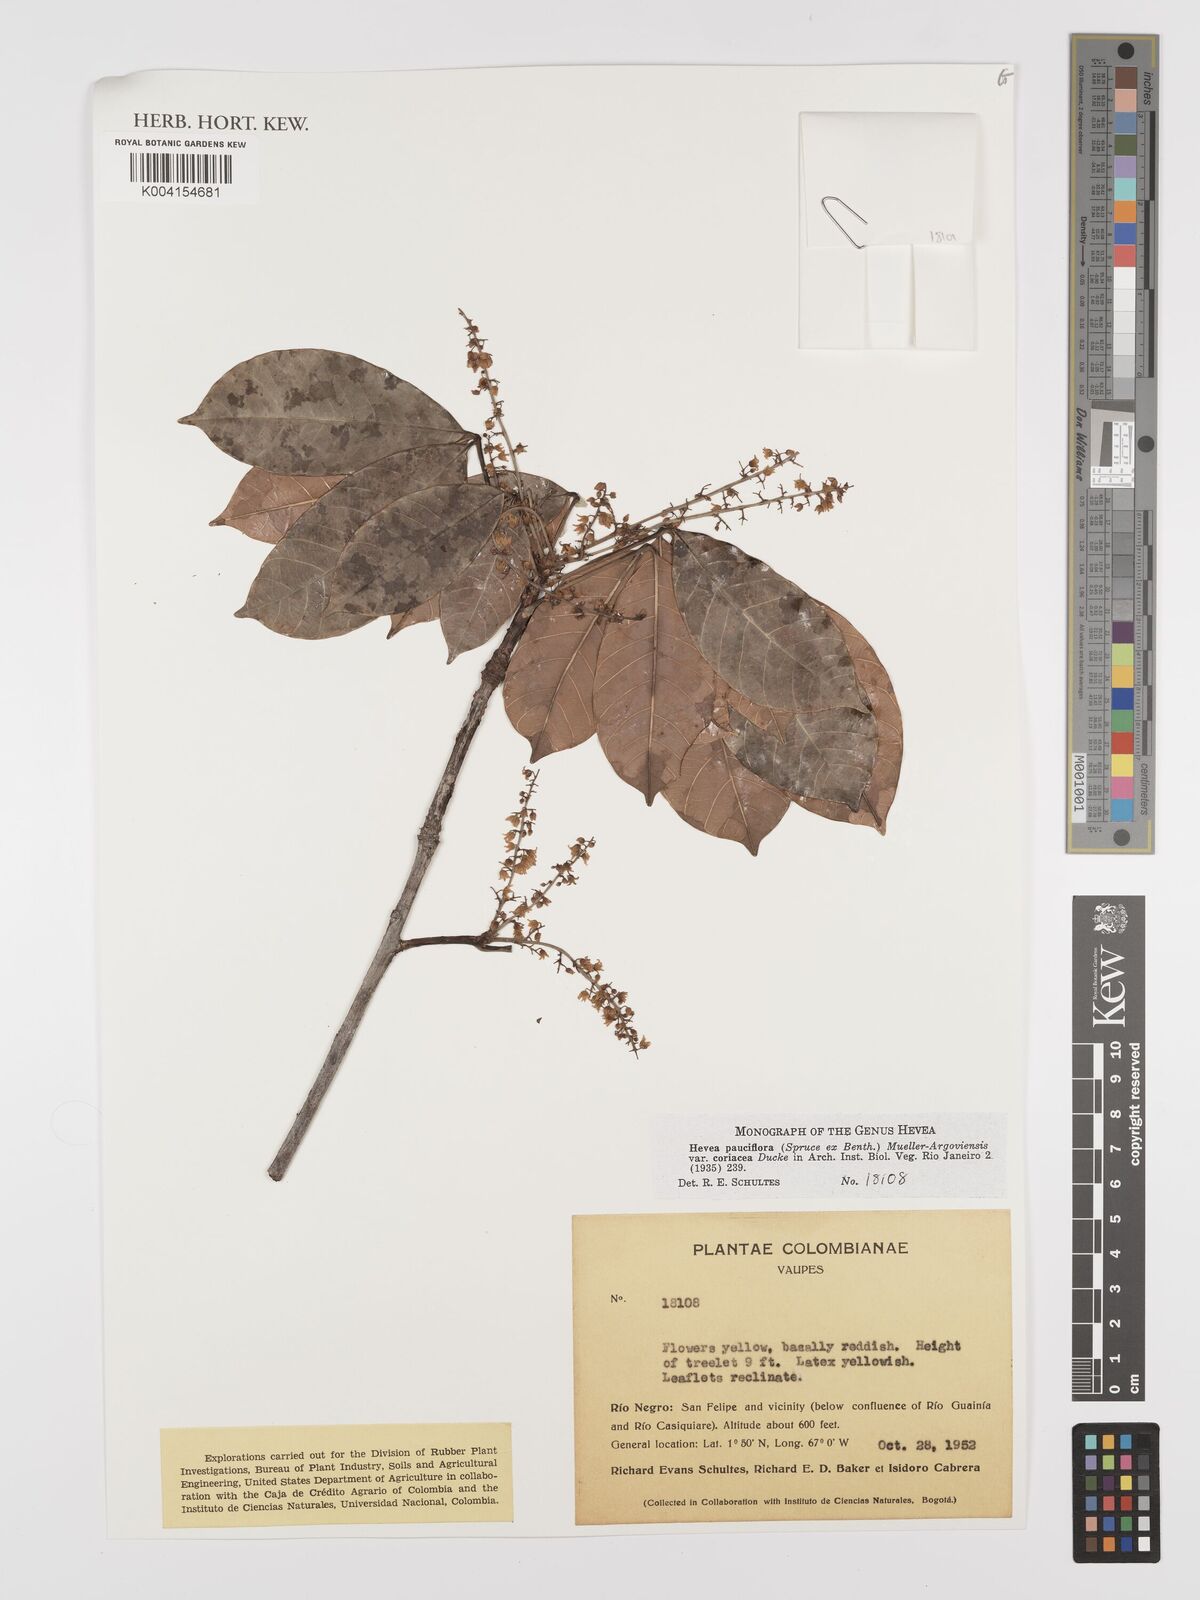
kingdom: Plantae
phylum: Tracheophyta
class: Magnoliopsida
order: Malpighiales
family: Euphorbiaceae
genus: Hevea
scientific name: Hevea pauciflora
